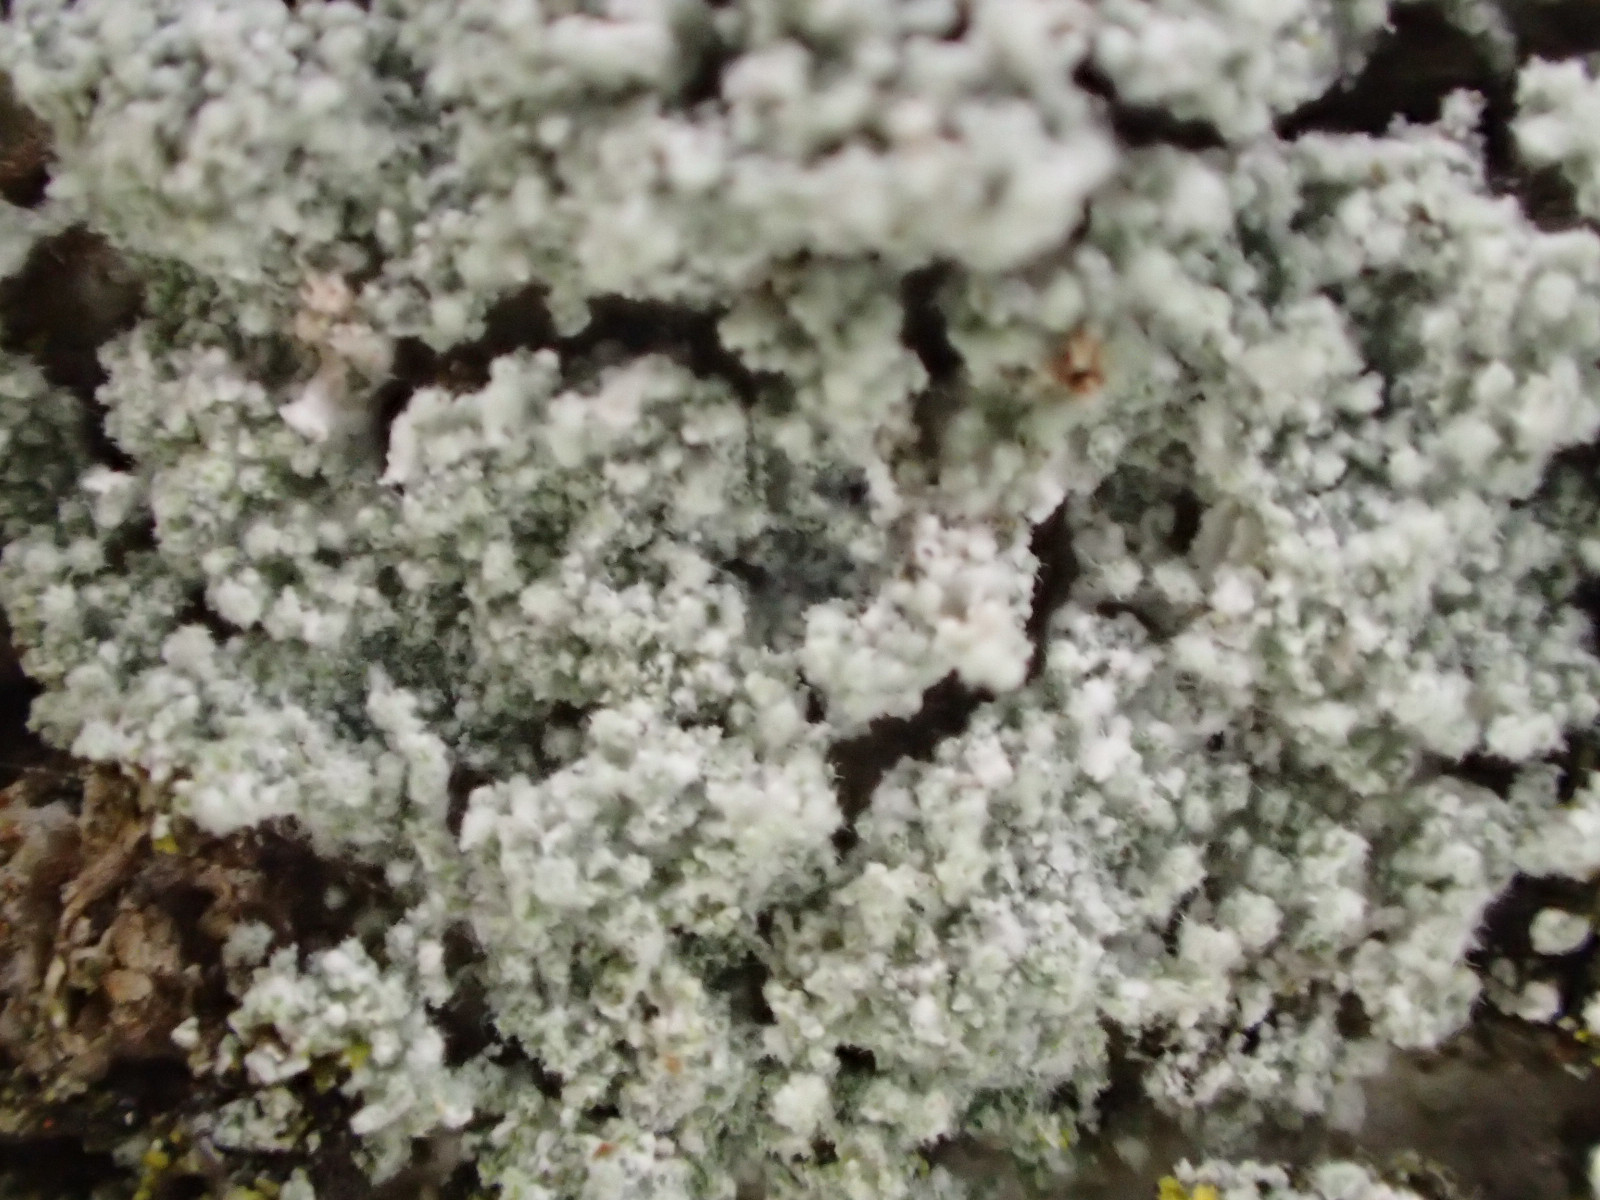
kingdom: Fungi
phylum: Ascomycota
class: Lecanoromycetes
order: Lecanorales
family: Stereocaulaceae
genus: Lepraria
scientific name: Lepraria lobificans
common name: grøn støvlav
